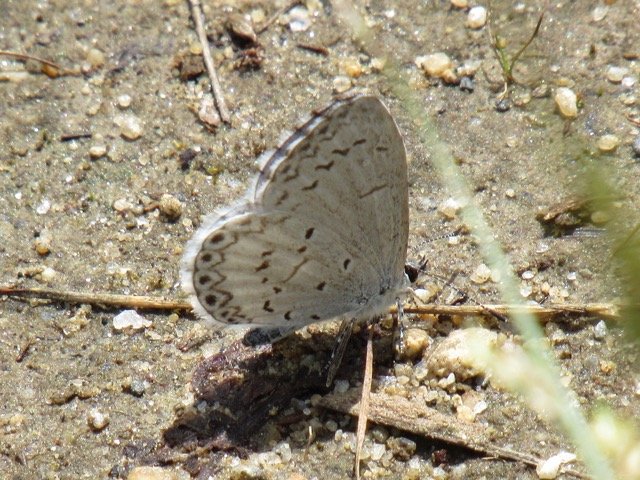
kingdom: Animalia
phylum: Arthropoda
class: Insecta
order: Lepidoptera
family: Lycaenidae
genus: Celastrina
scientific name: Celastrina
